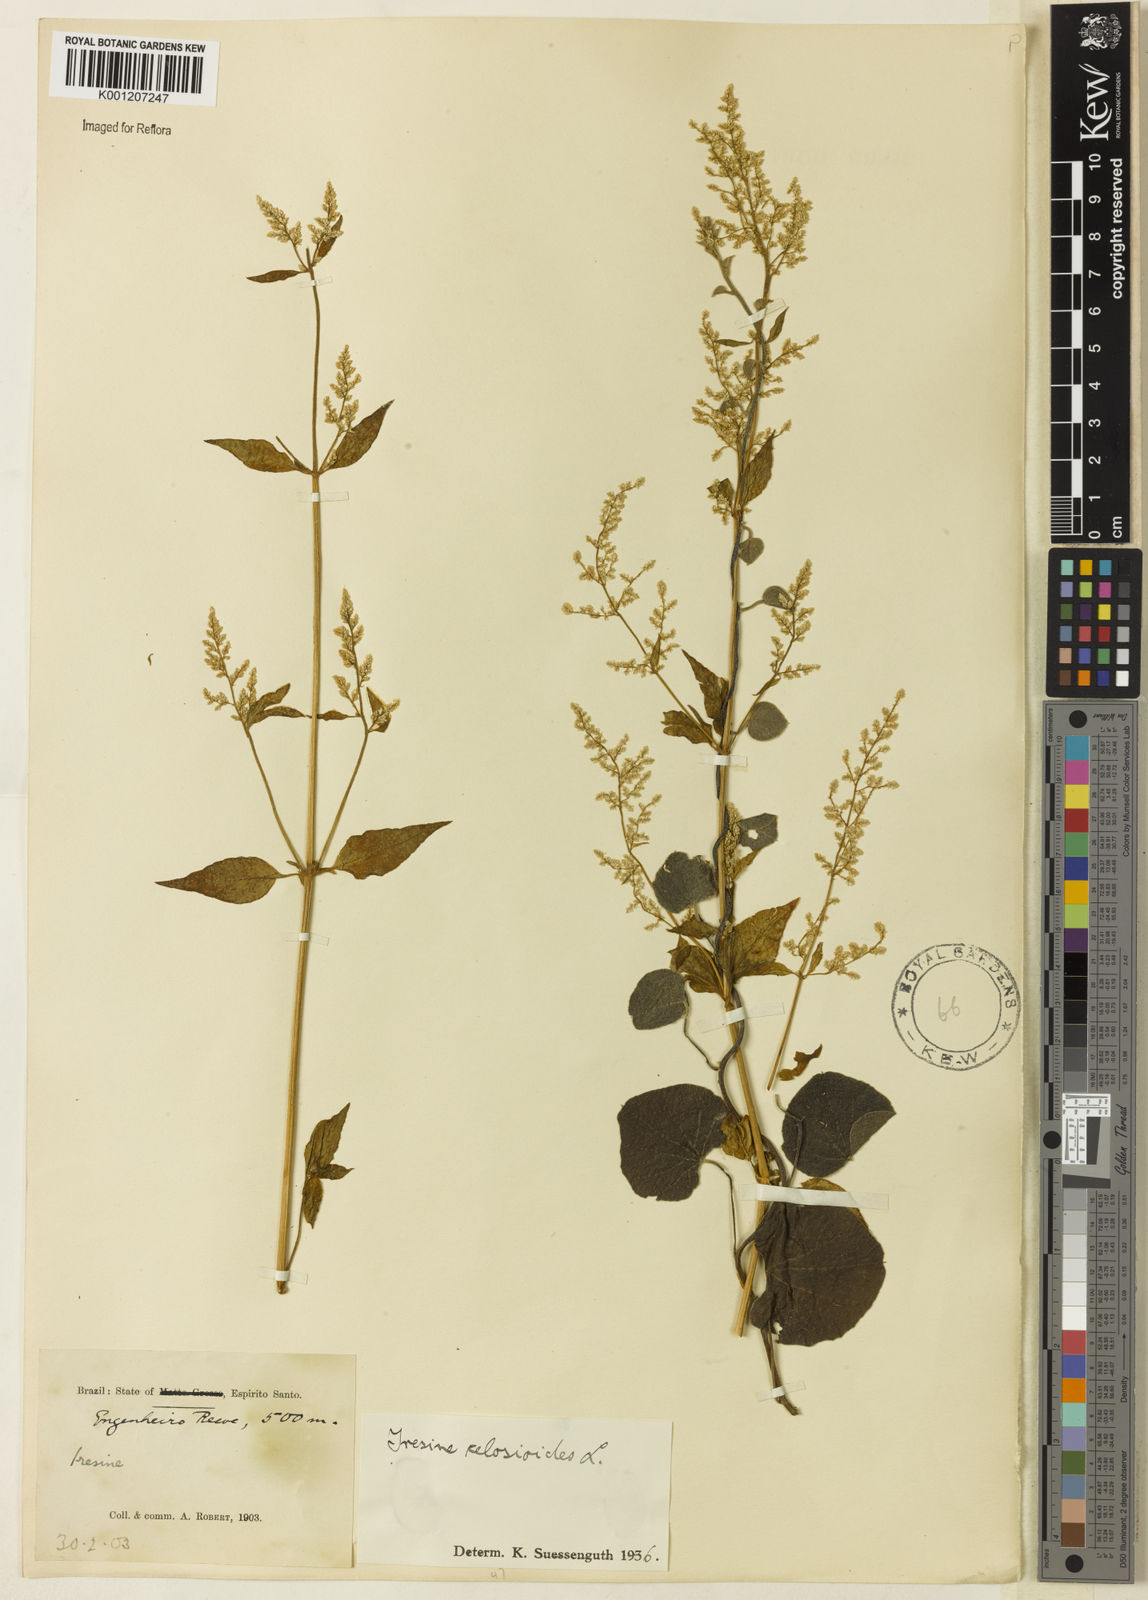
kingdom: Plantae
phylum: Tracheophyta
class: Magnoliopsida
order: Caryophyllales
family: Amaranthaceae
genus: Iresine
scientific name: Iresine rhizomatosa
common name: Juda's-bush
